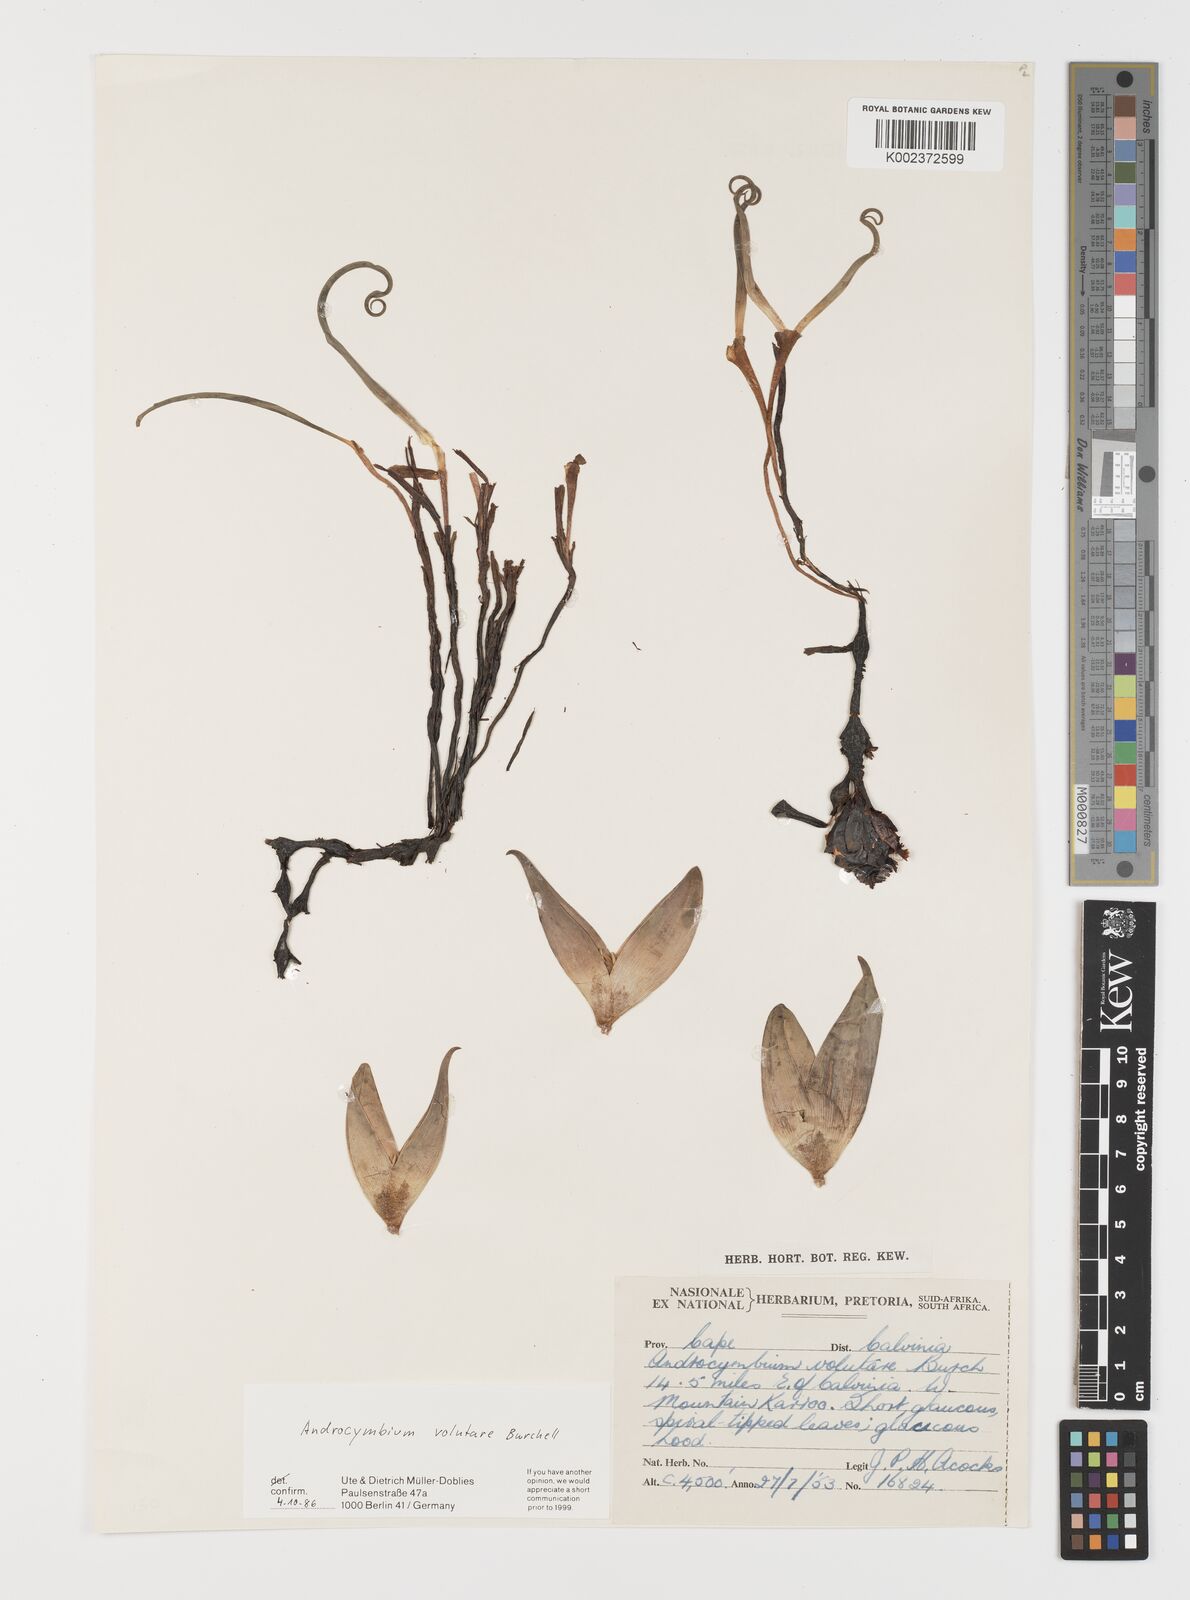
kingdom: Plantae
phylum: Tracheophyta
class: Liliopsida
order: Liliales
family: Colchicaceae
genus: Colchicum
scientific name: Colchicum volutare
